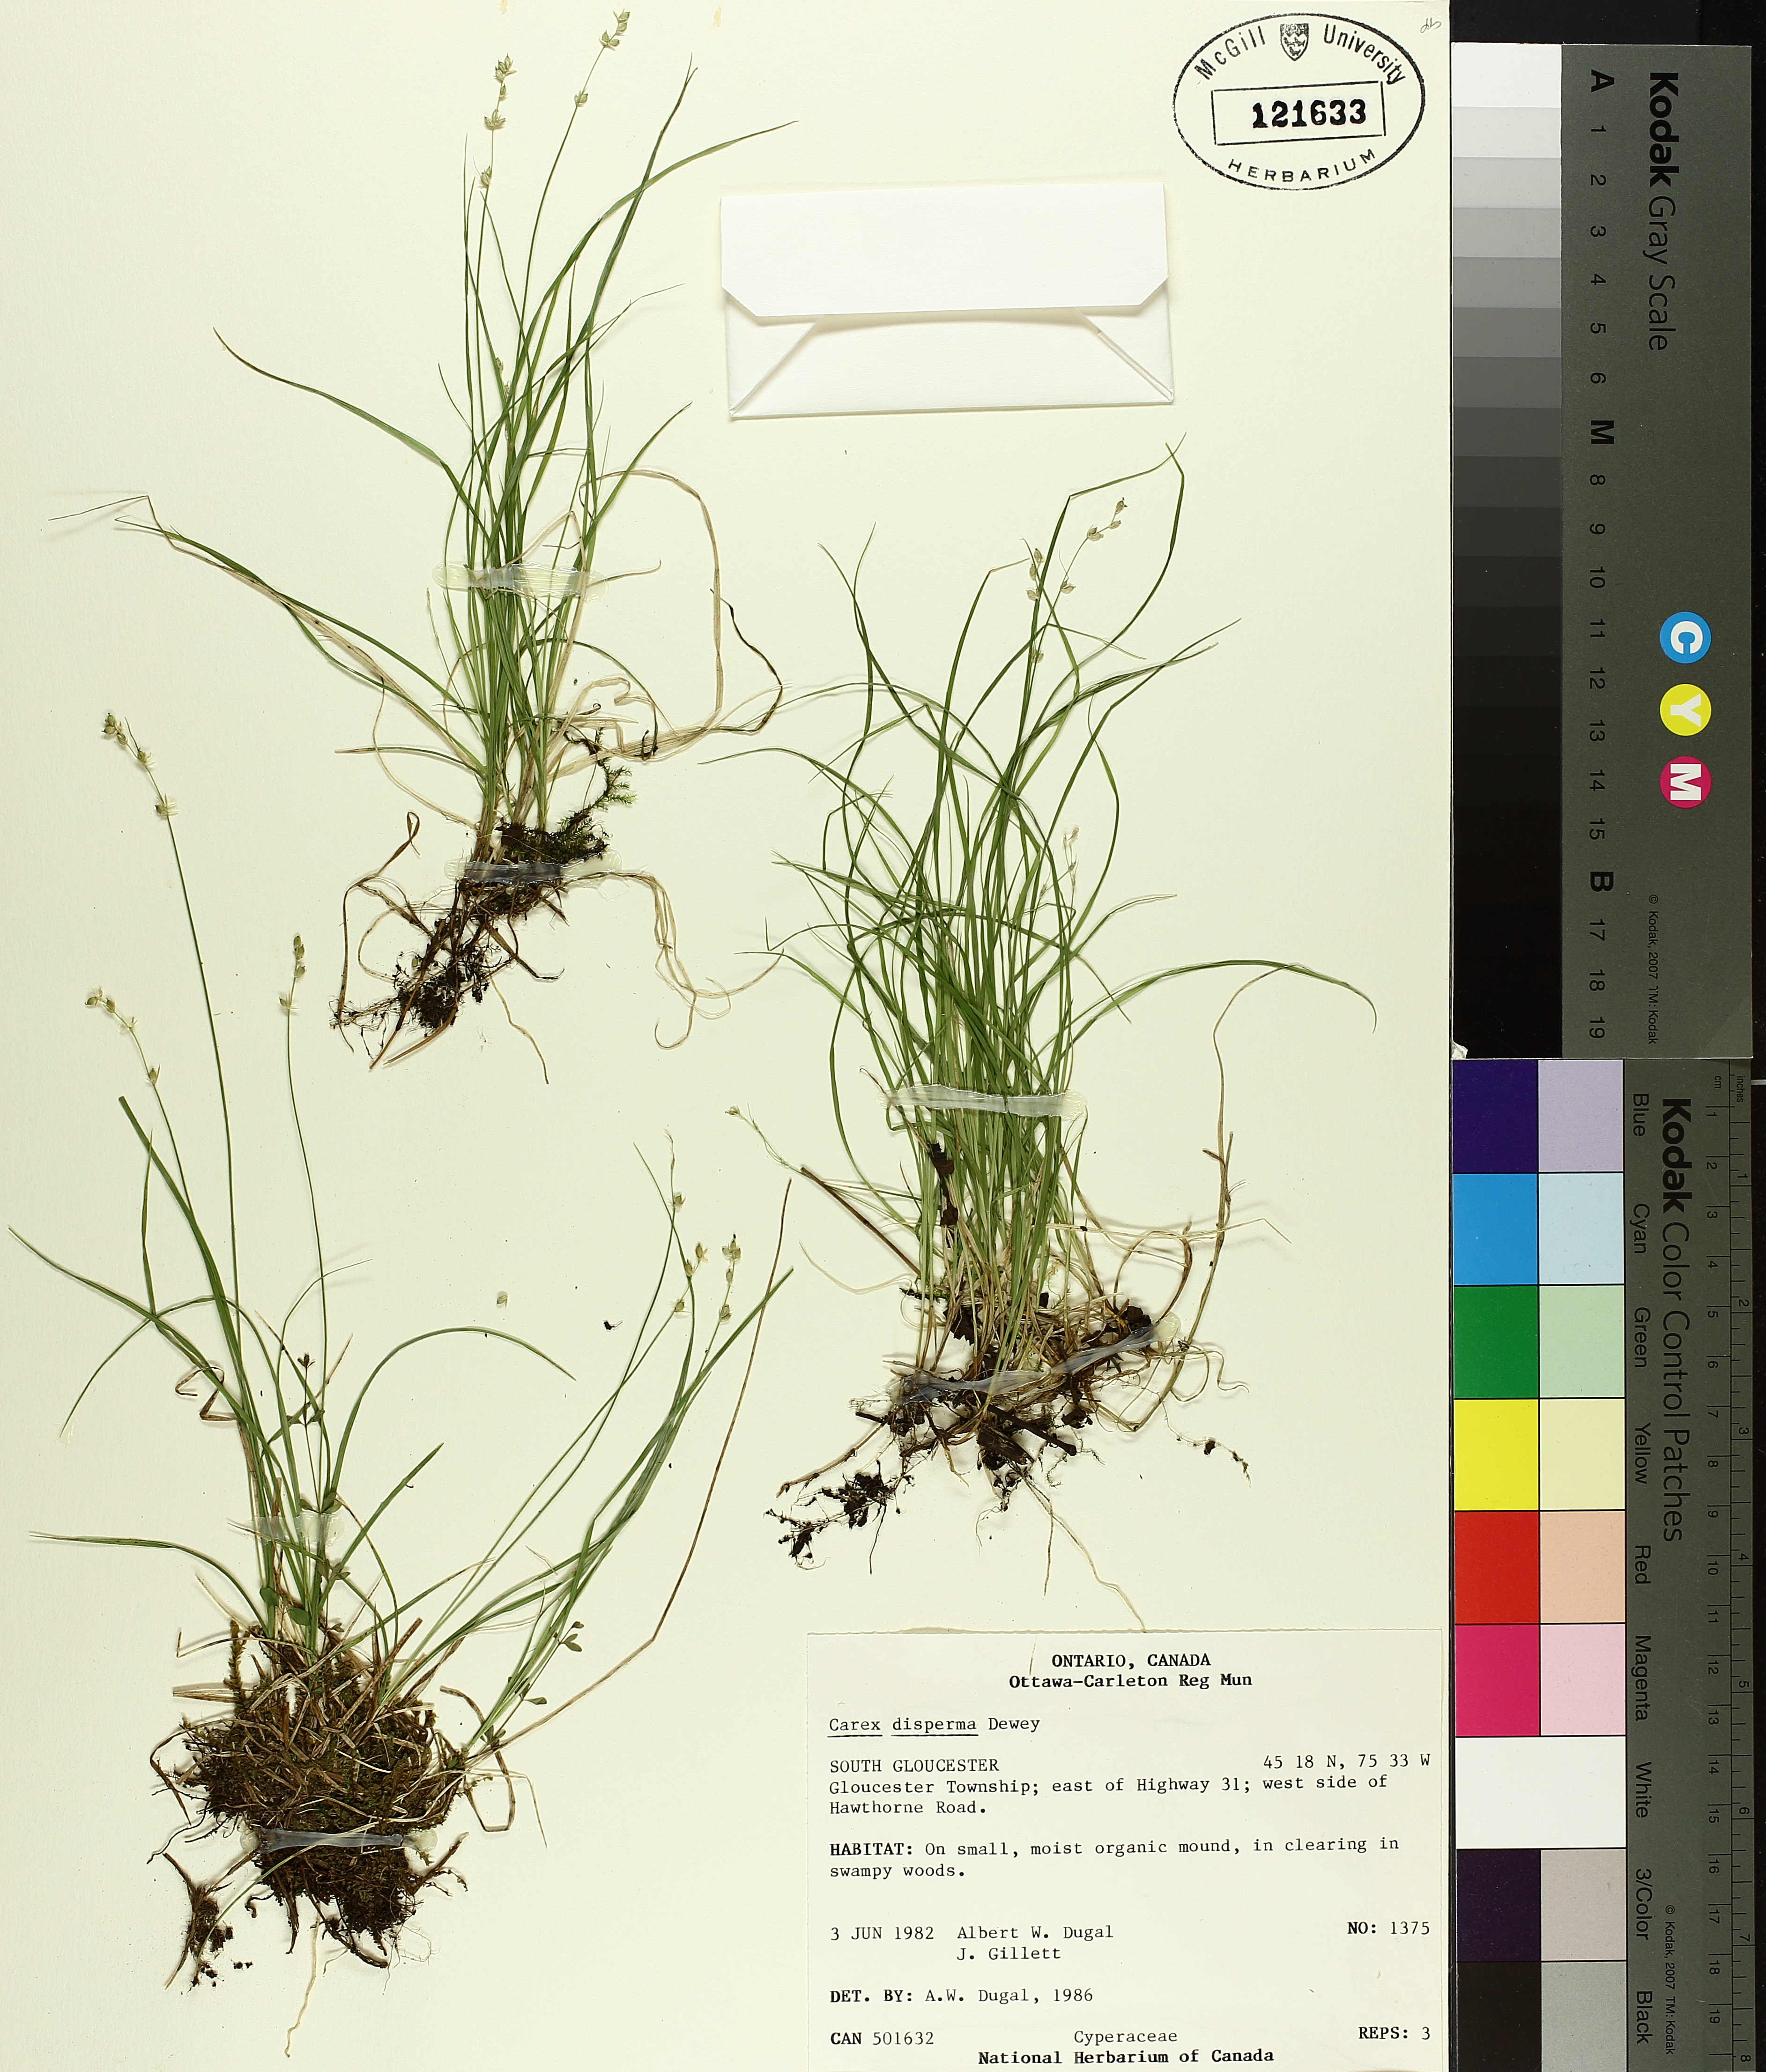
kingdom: Plantae
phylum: Tracheophyta
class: Liliopsida
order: Poales
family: Cyperaceae
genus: Carex
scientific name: Carex disperma
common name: Short-leaved sedge
